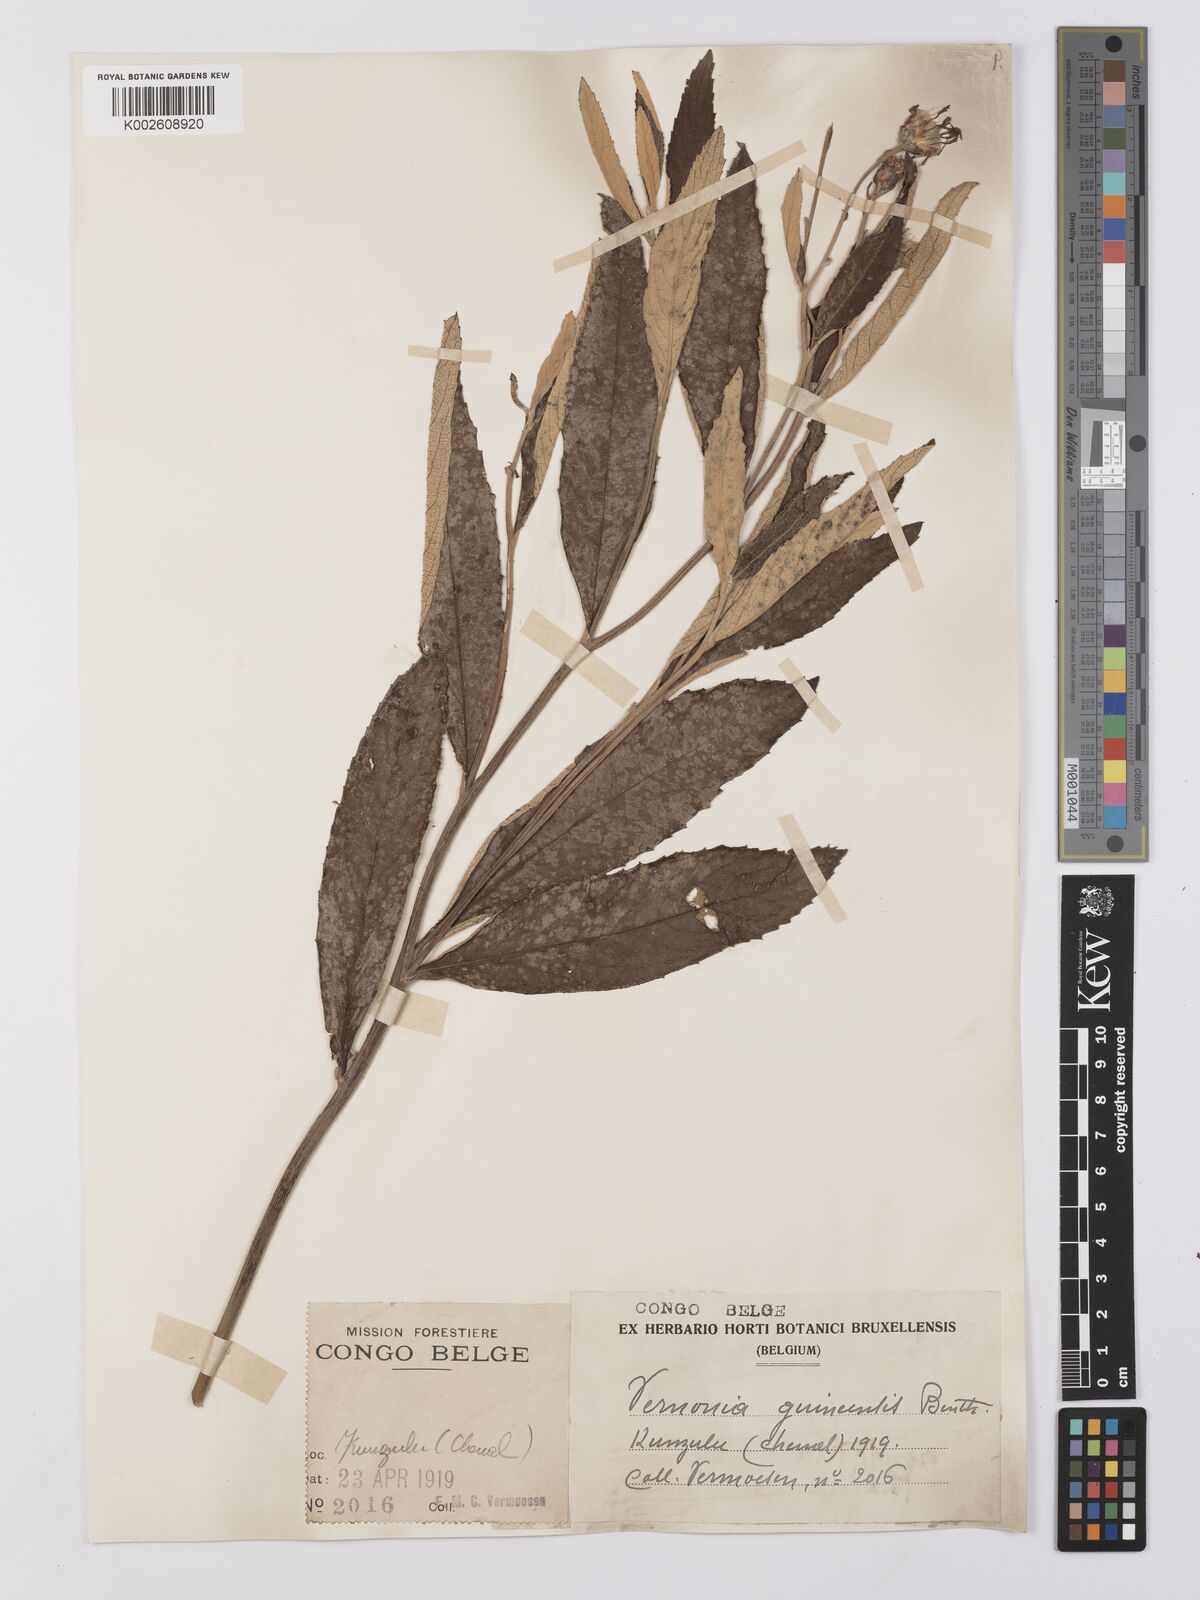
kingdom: Plantae
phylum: Tracheophyta
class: Magnoliopsida
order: Asterales
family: Asteraceae
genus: Baccharoides
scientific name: Baccharoides guineensis
